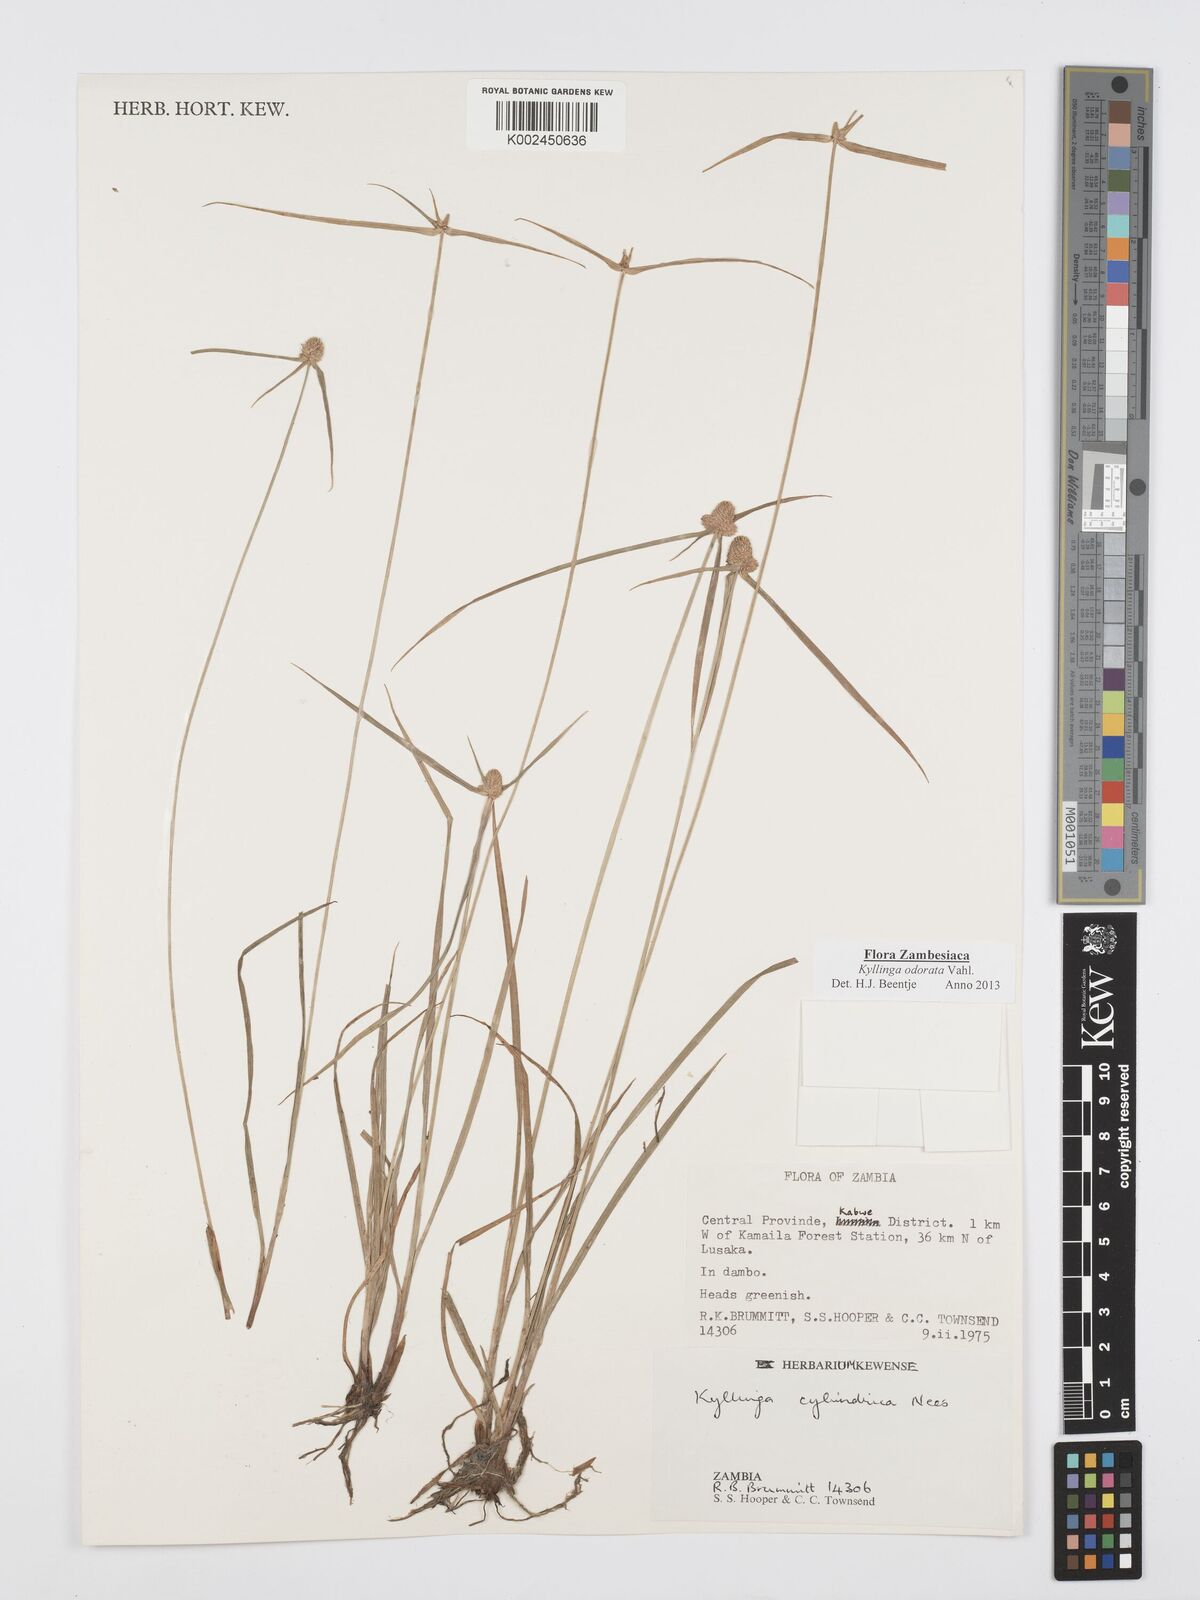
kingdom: Plantae
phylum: Tracheophyta
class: Liliopsida
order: Poales
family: Cyperaceae
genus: Cyperus
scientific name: Cyperus
